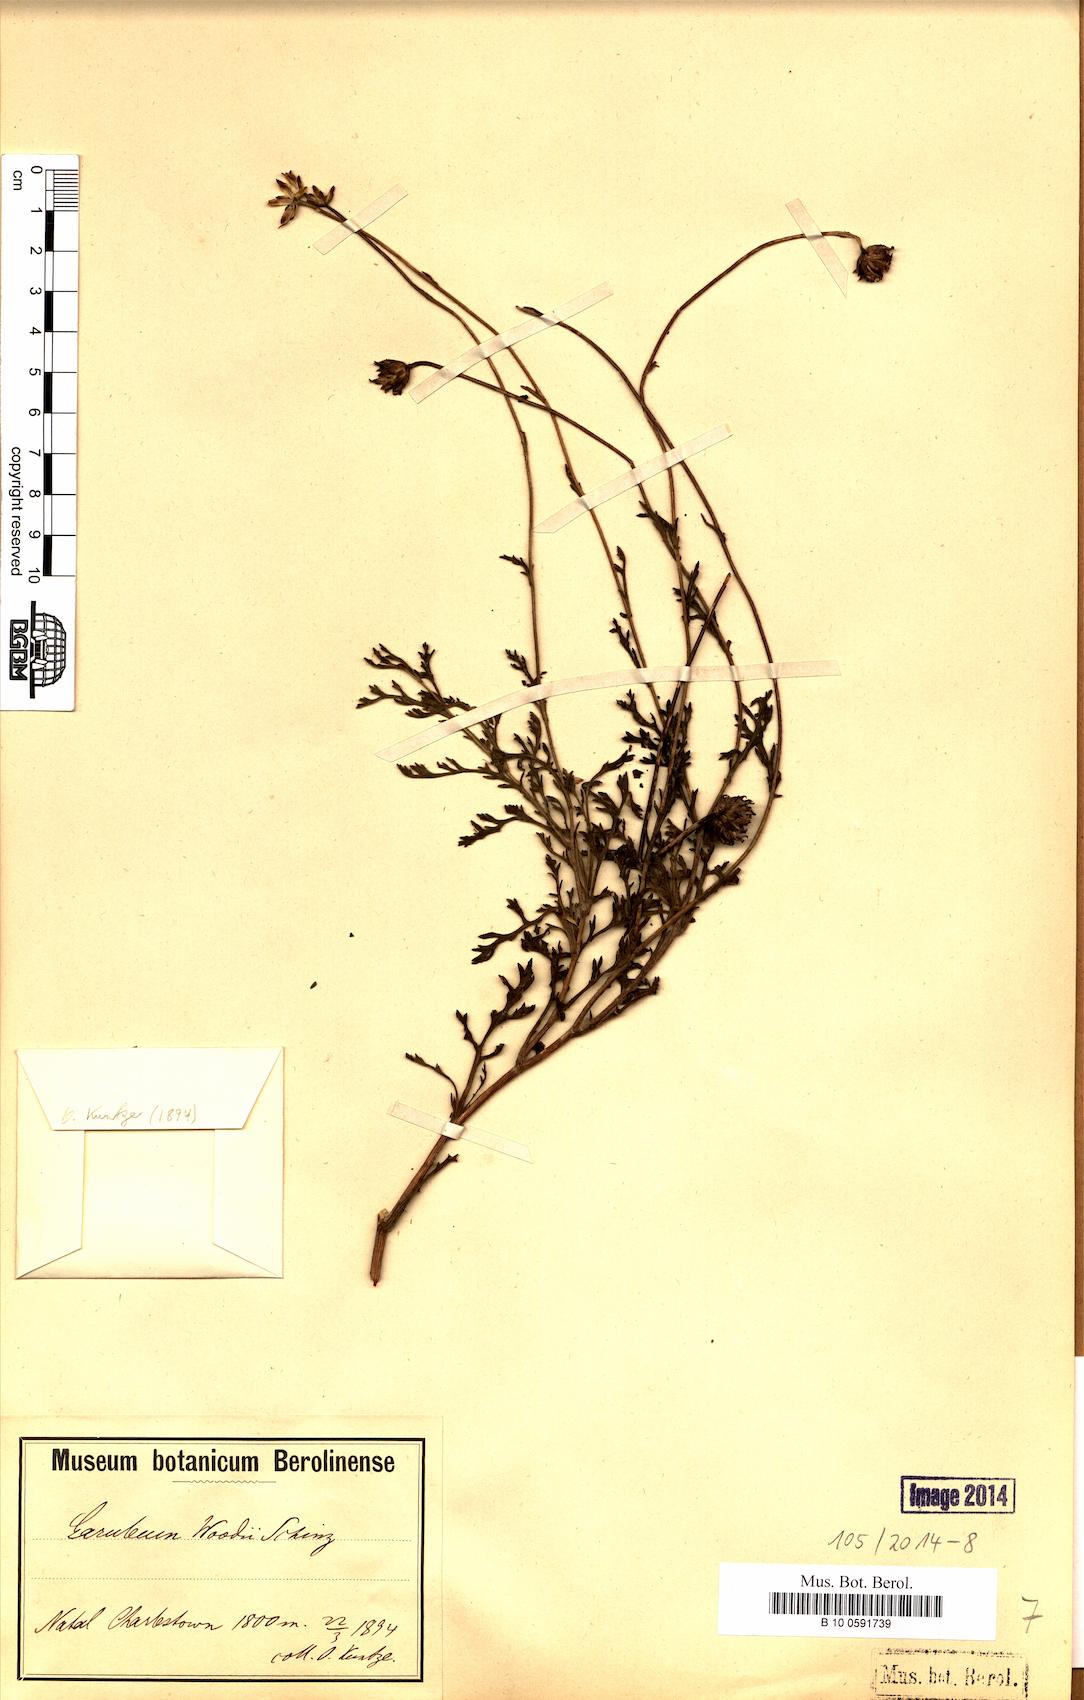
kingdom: Plantae
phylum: Tracheophyta
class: Magnoliopsida
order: Asterales
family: Asteraceae
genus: Garuleum
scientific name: Garuleum woodii
